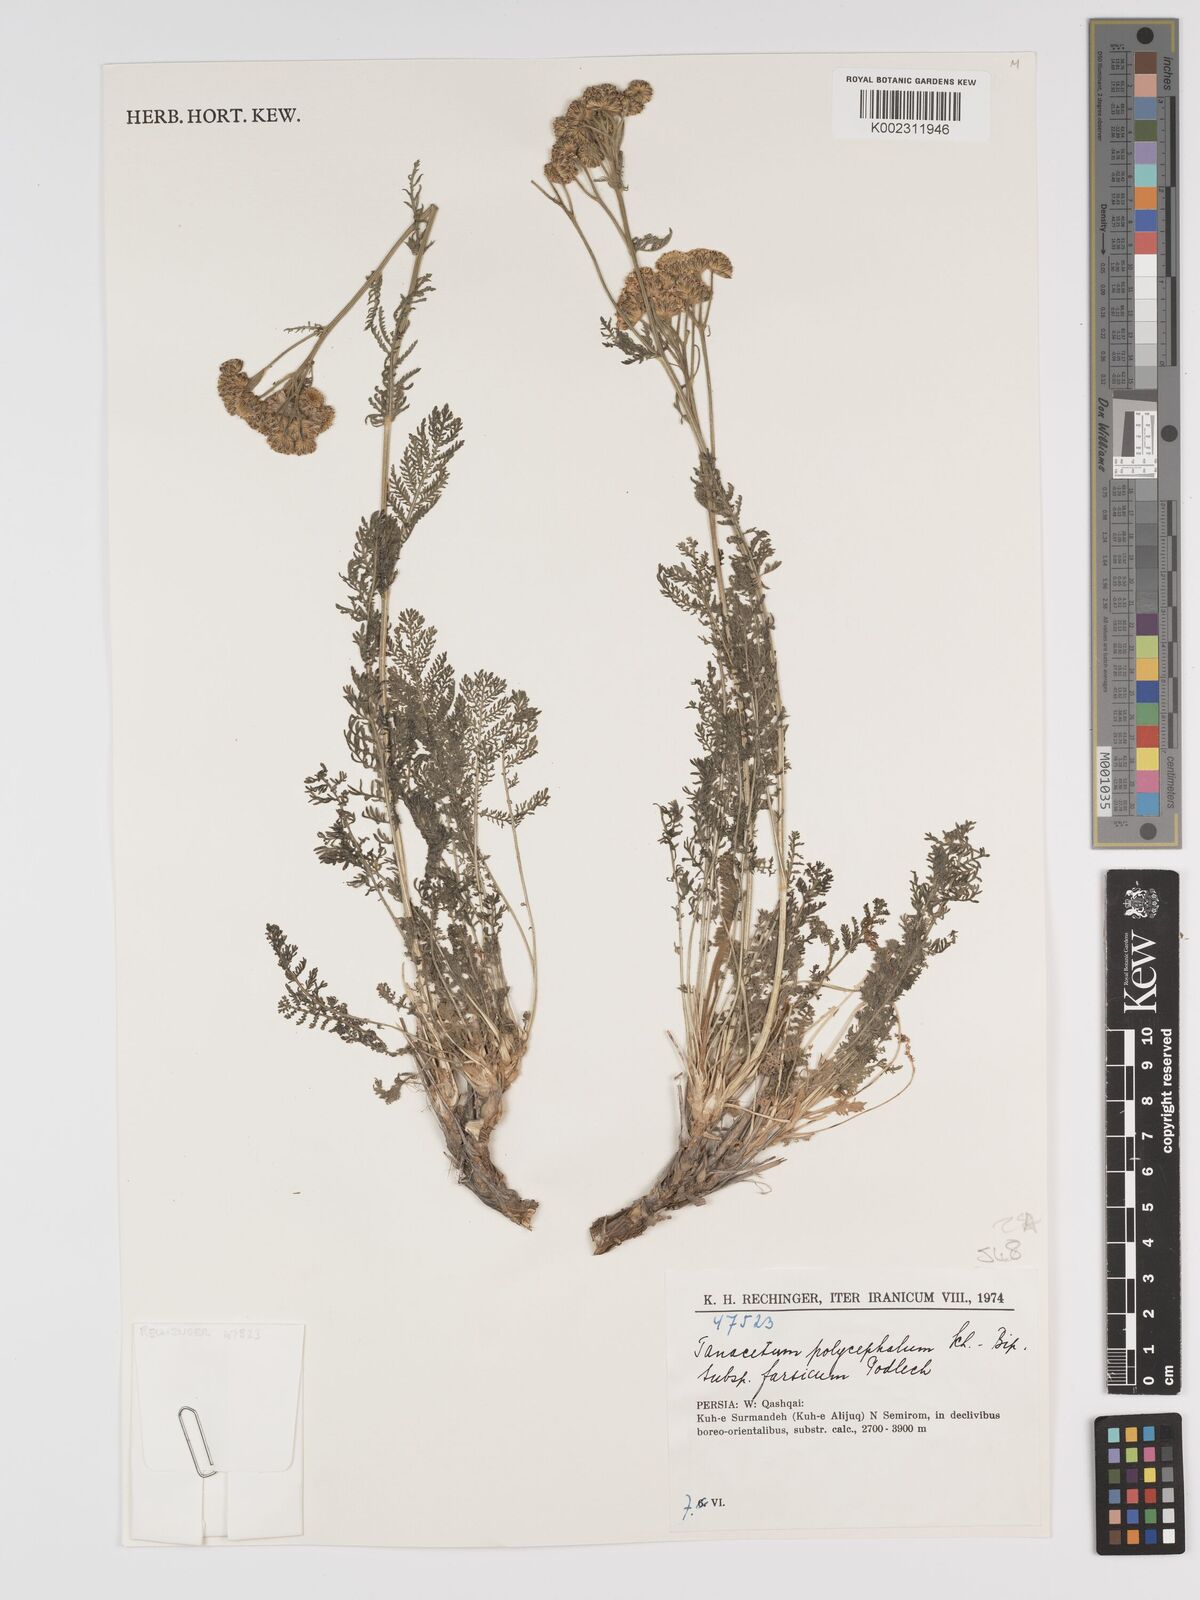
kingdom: Plantae
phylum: Tracheophyta
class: Magnoliopsida
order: Asterales
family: Asteraceae
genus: Tanacetum
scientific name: Tanacetum polycephalum
